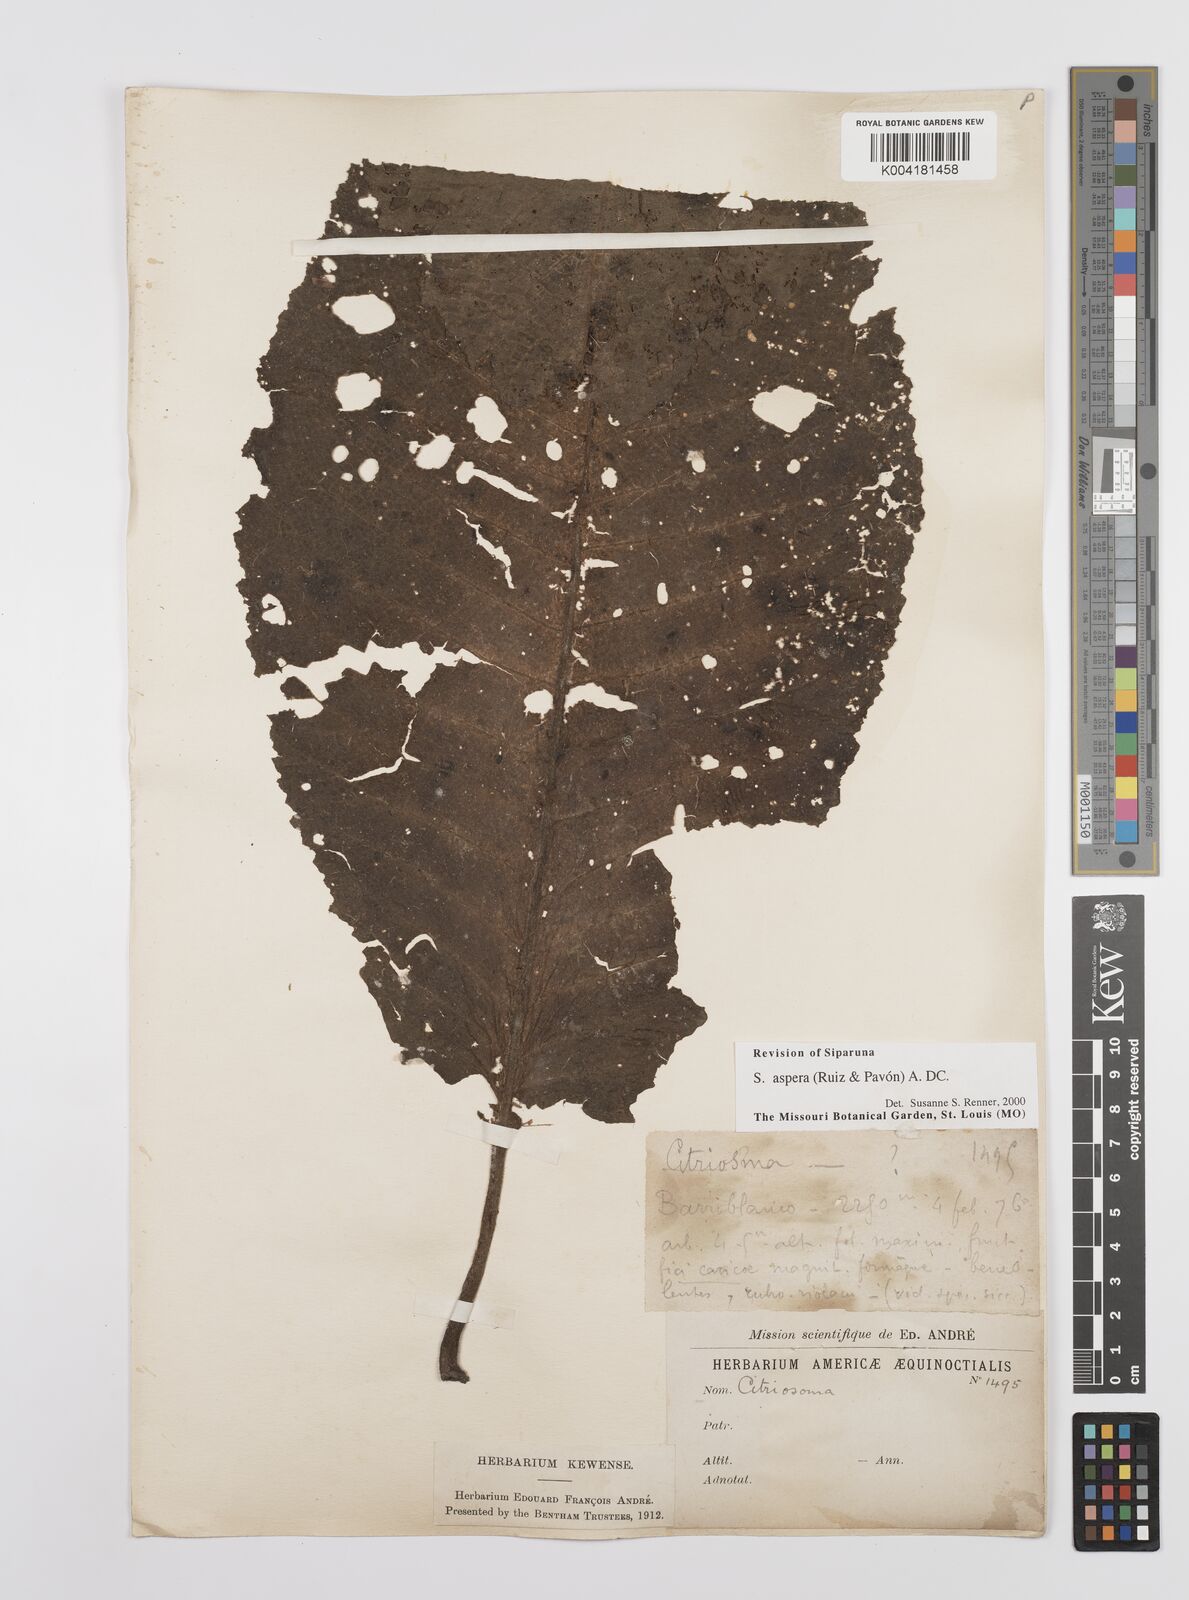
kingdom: Plantae
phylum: Tracheophyta
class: Magnoliopsida
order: Laurales
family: Siparunaceae
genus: Siparuna
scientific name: Siparuna aspera
